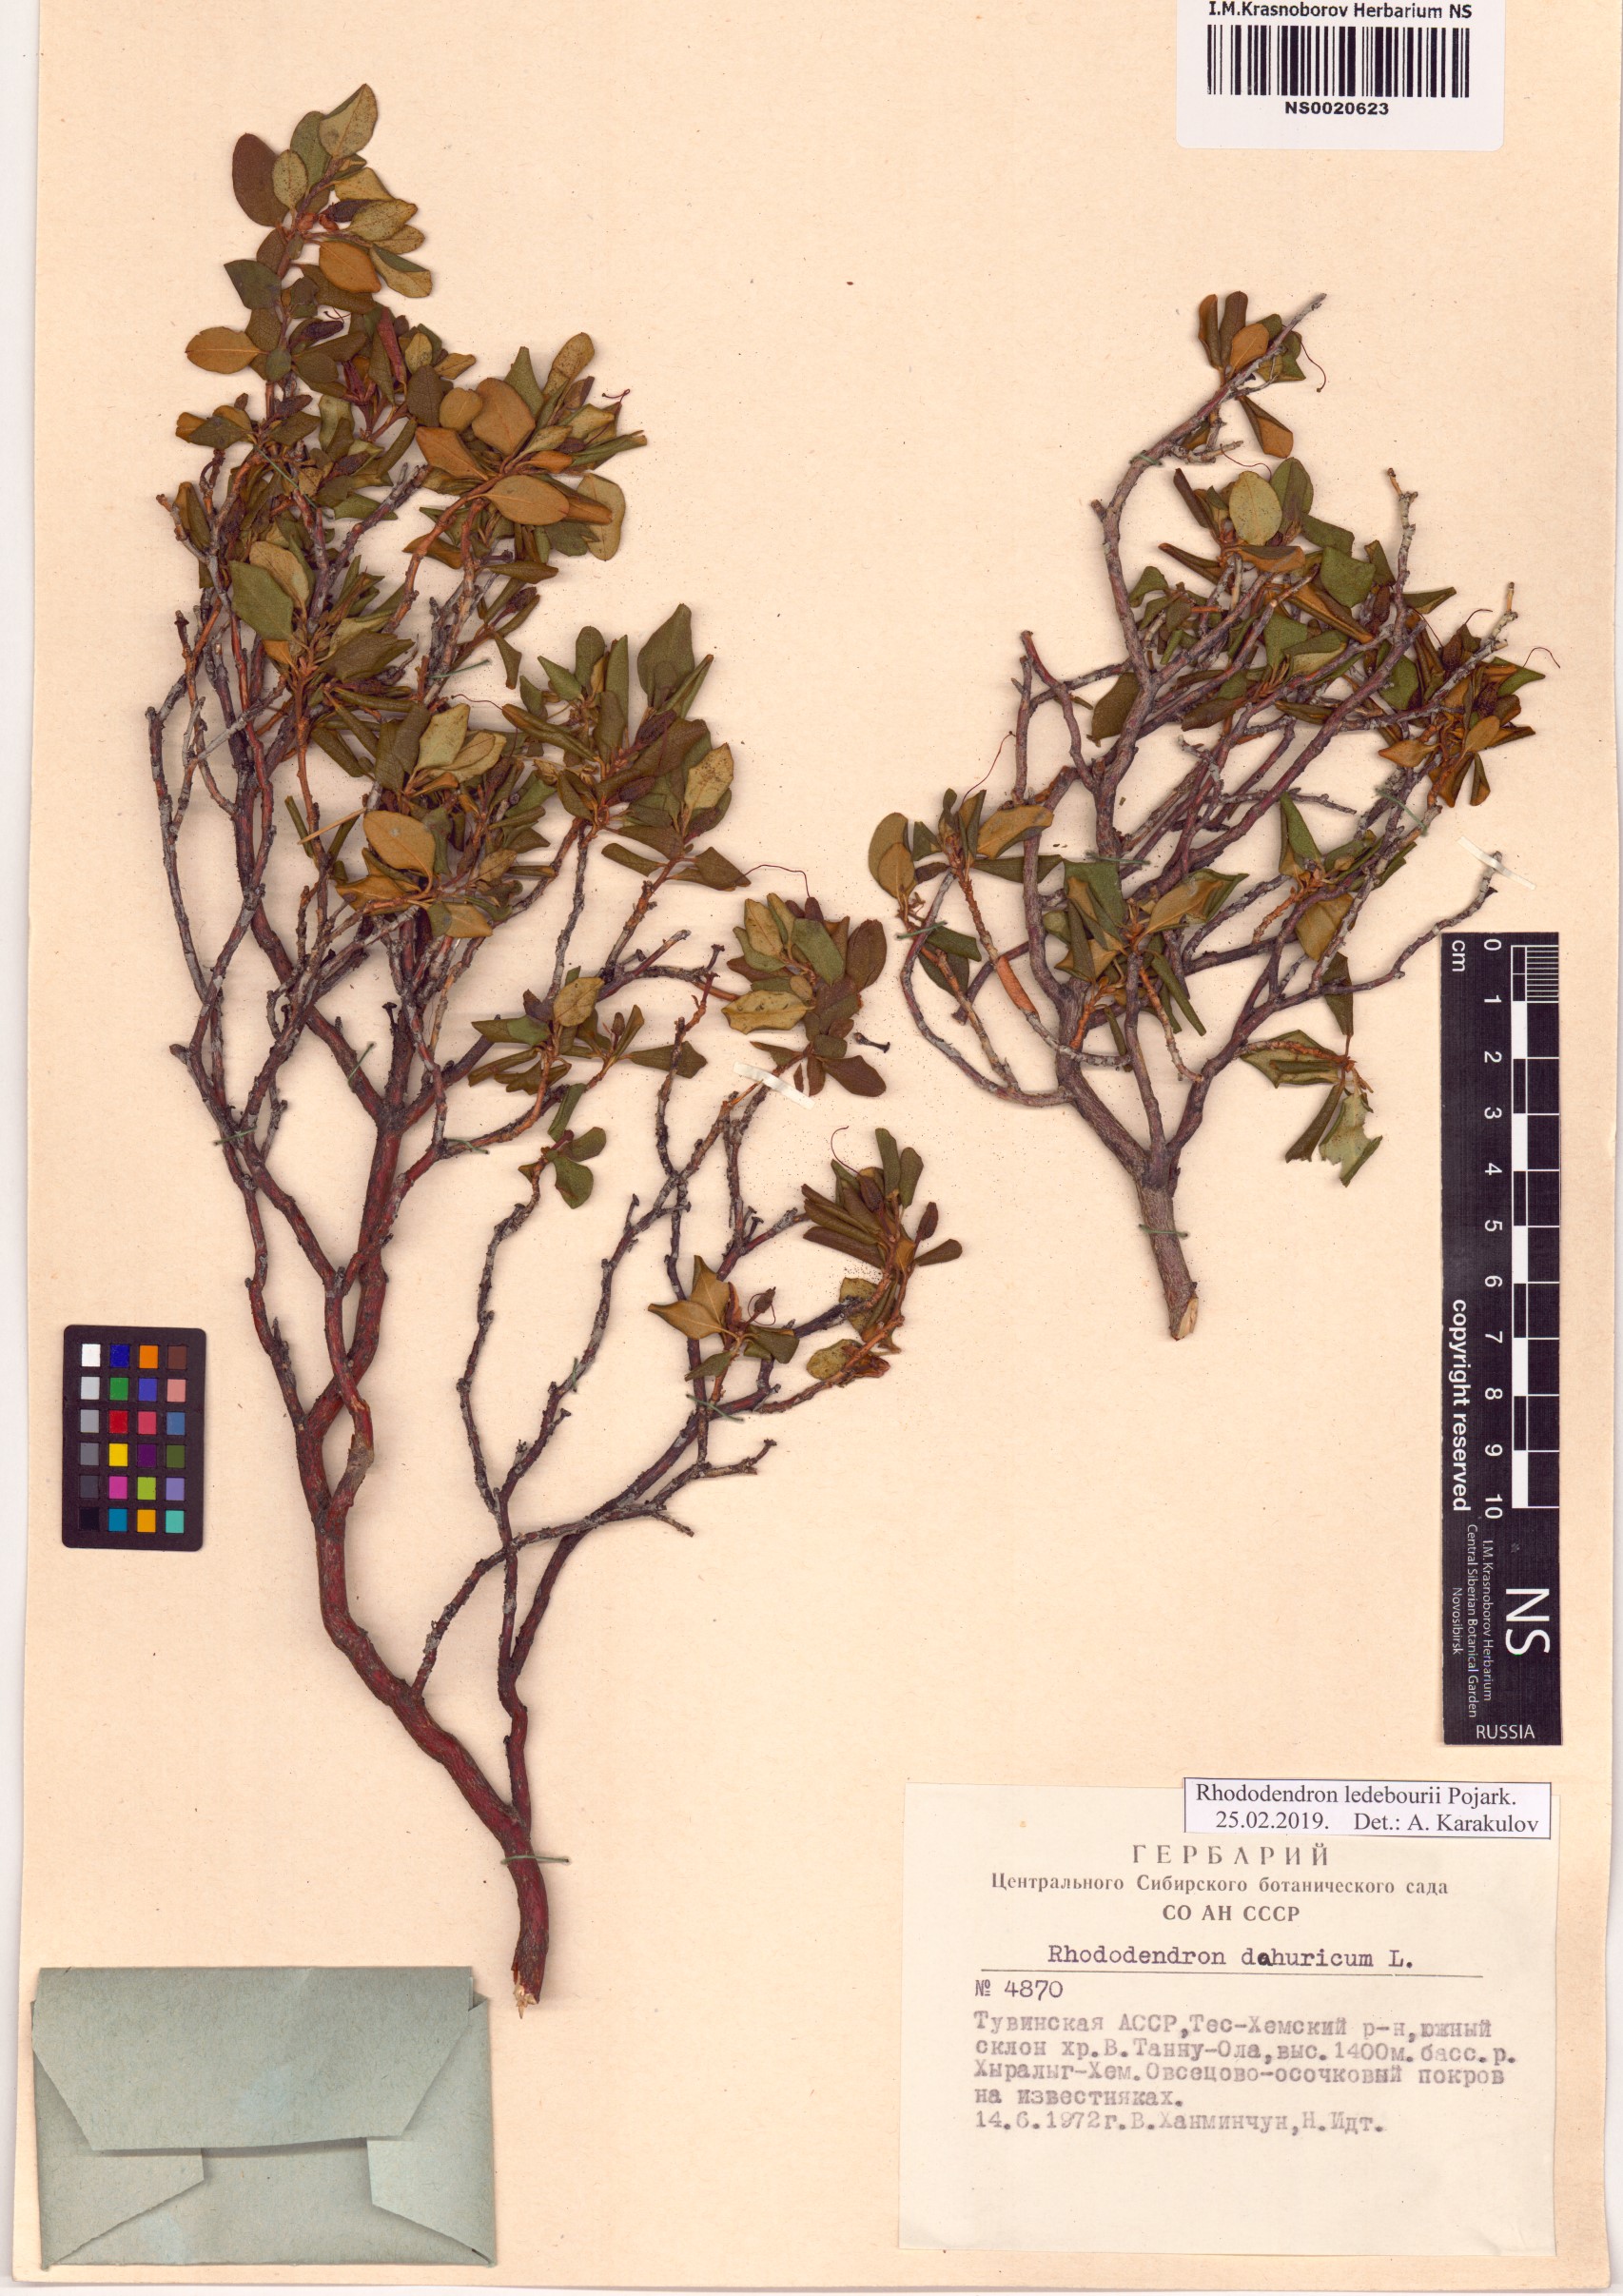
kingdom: Plantae
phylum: Tracheophyta
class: Magnoliopsida
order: Ericales
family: Ericaceae
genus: Rhododendron
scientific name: Rhododendron dauricum
